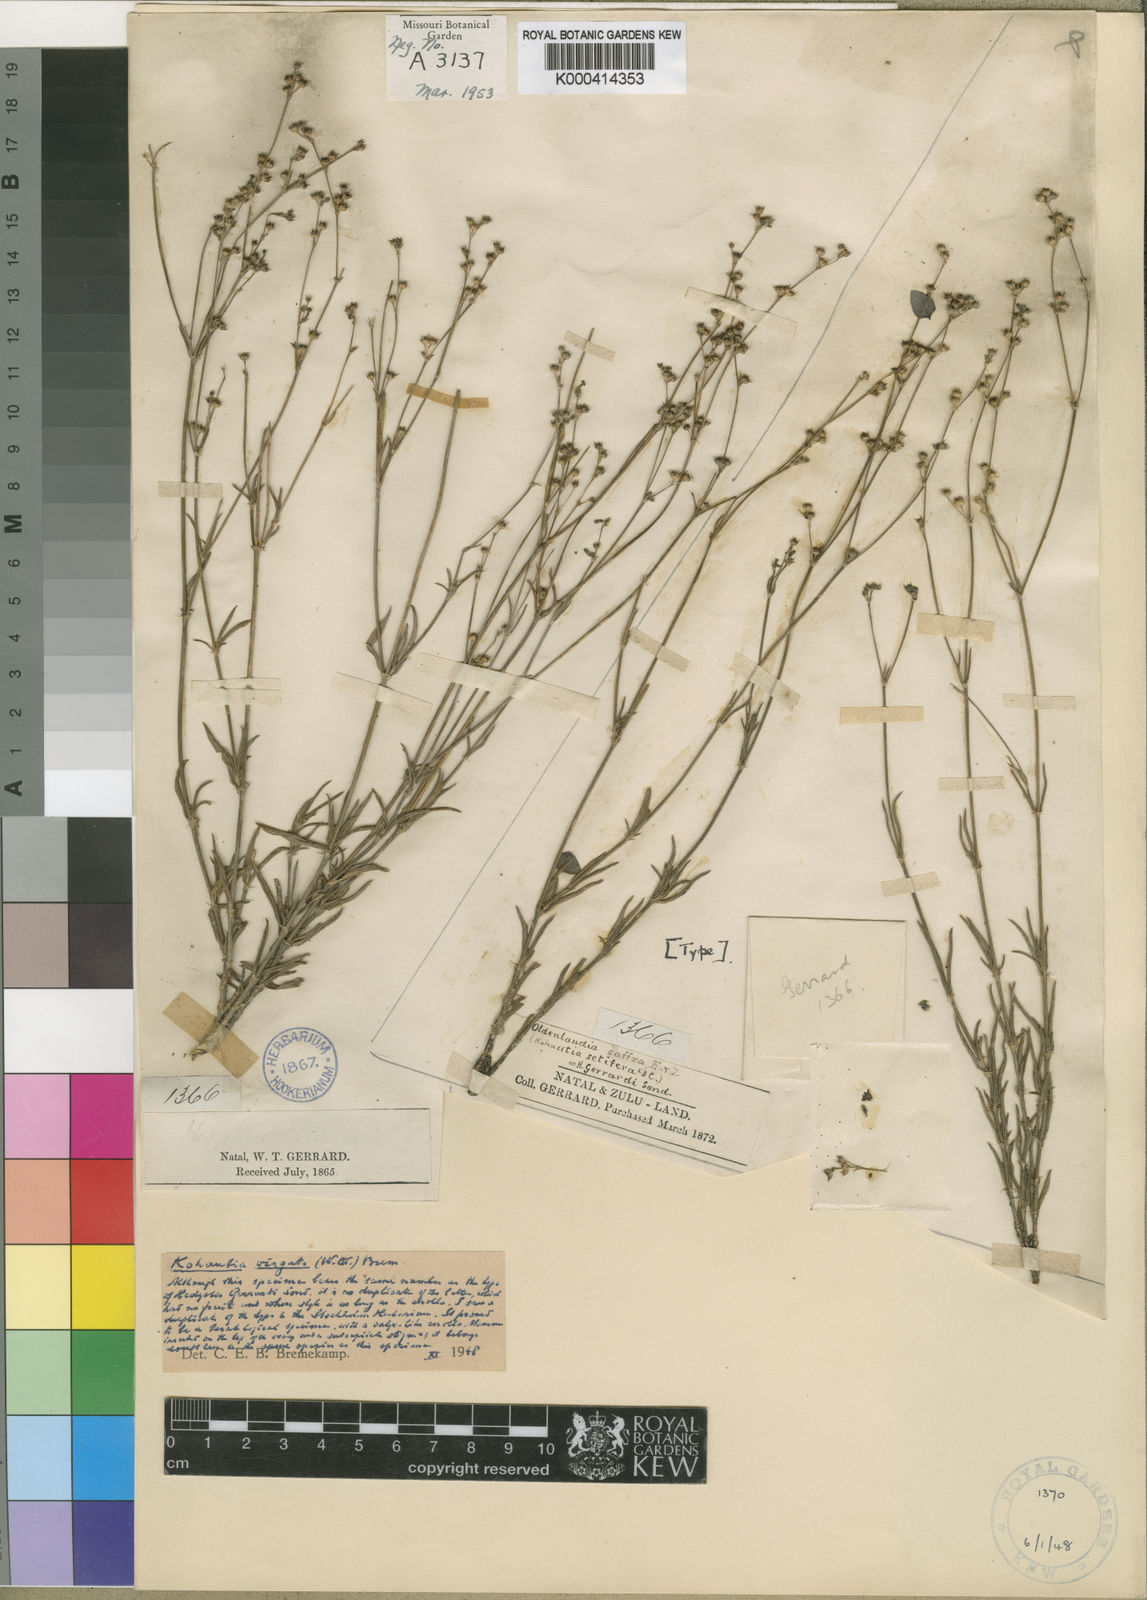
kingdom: Plantae
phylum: Tracheophyta
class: Magnoliopsida
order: Gentianales
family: Rubiaceae
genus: Cordylostigma
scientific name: Cordylostigma virgatum
